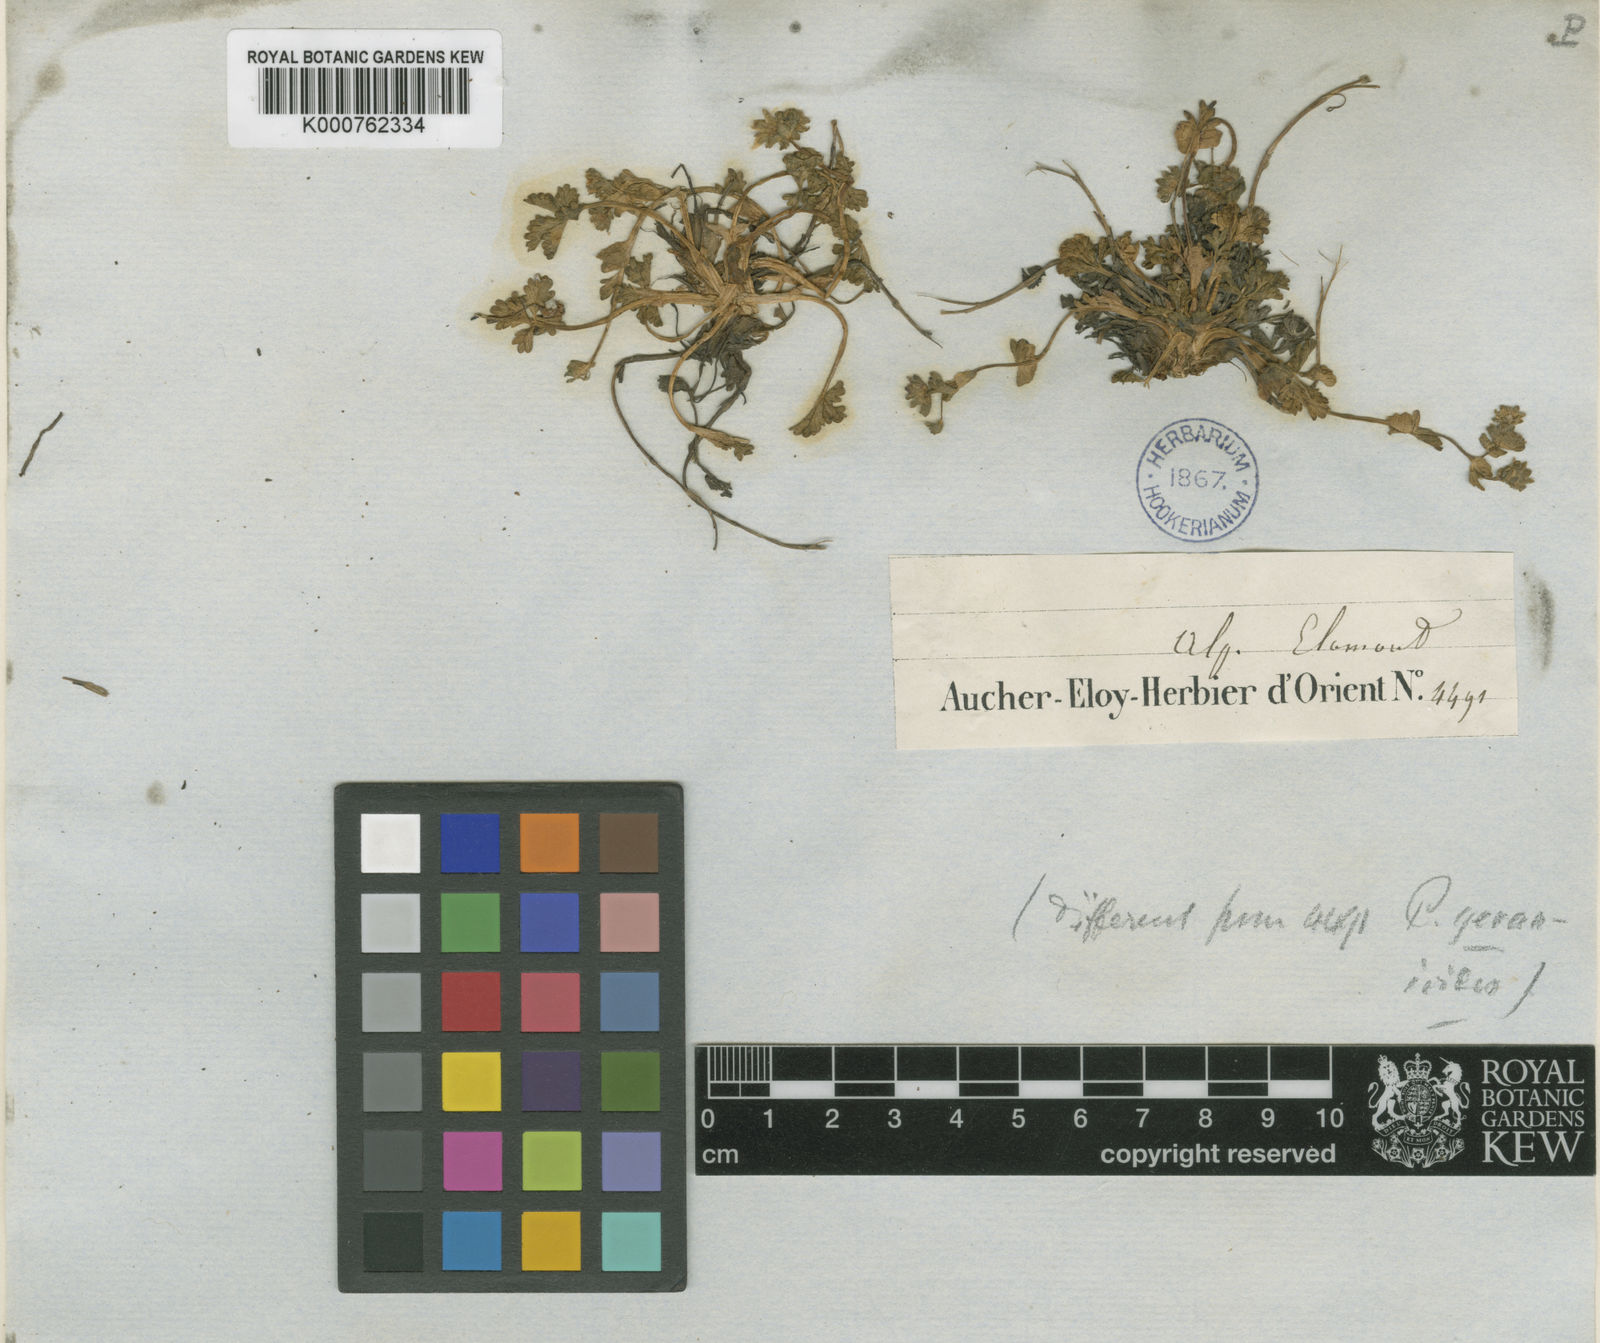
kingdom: Plantae
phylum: Tracheophyta
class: Magnoliopsida
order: Rosales
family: Rosaceae
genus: Potentilla
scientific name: Potentilla nuda
